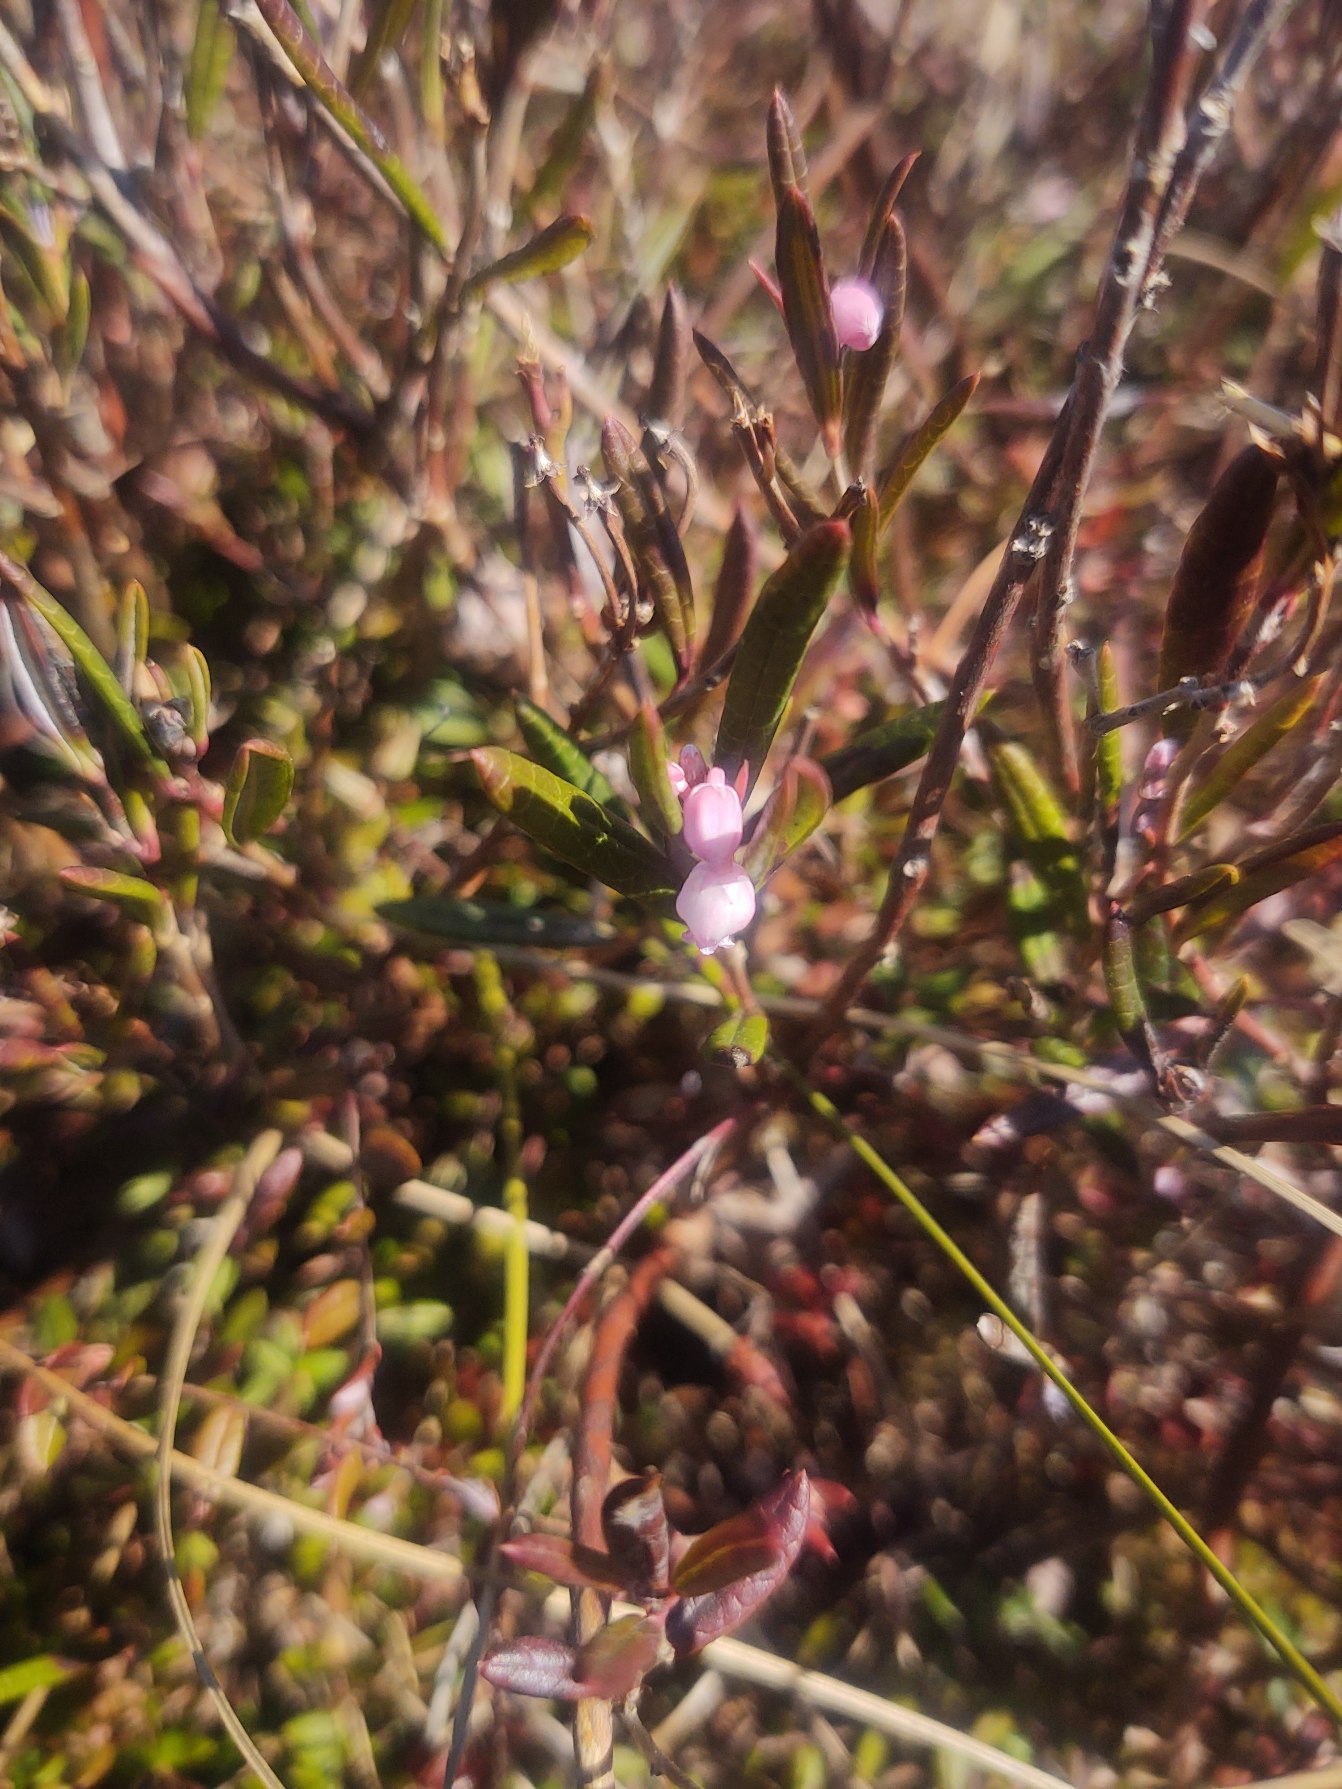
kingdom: Plantae
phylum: Tracheophyta
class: Magnoliopsida
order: Ericales
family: Ericaceae
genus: Andromeda
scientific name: Andromeda polifolia
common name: Rosmarinlyng
